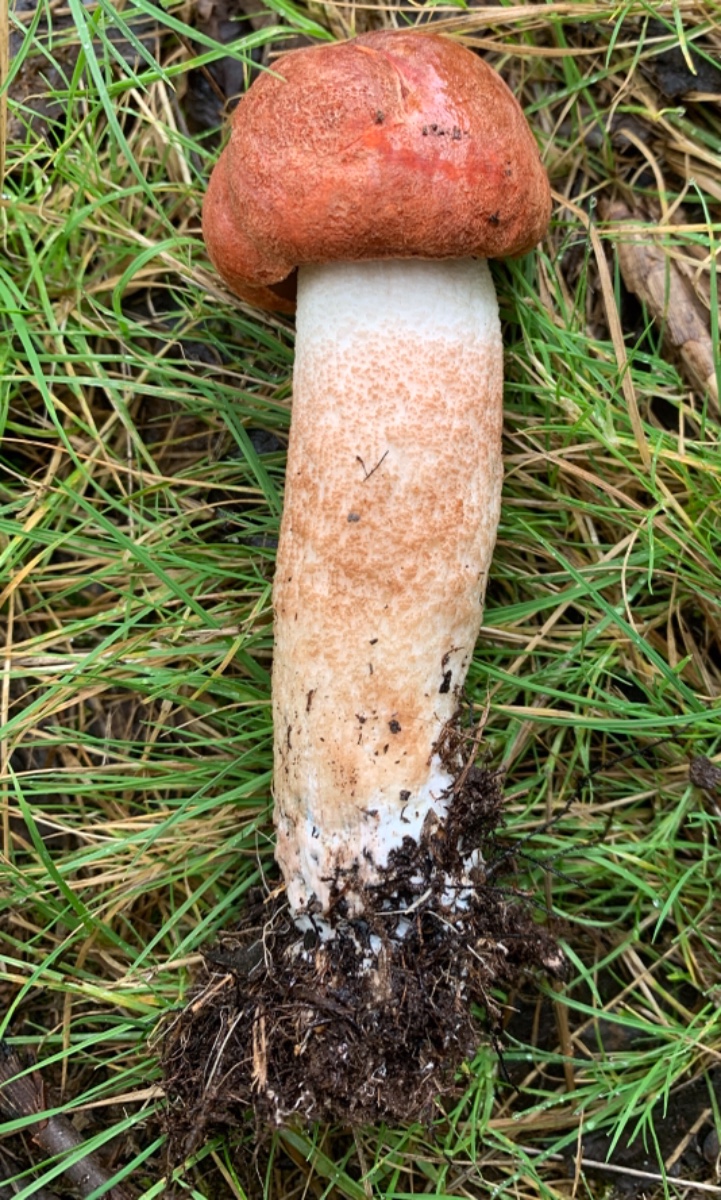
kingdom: Fungi
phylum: Basidiomycota
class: Agaricomycetes
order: Boletales
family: Boletaceae
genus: Leccinum
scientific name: Leccinum aurantiacum
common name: rustrød skælrørhat
